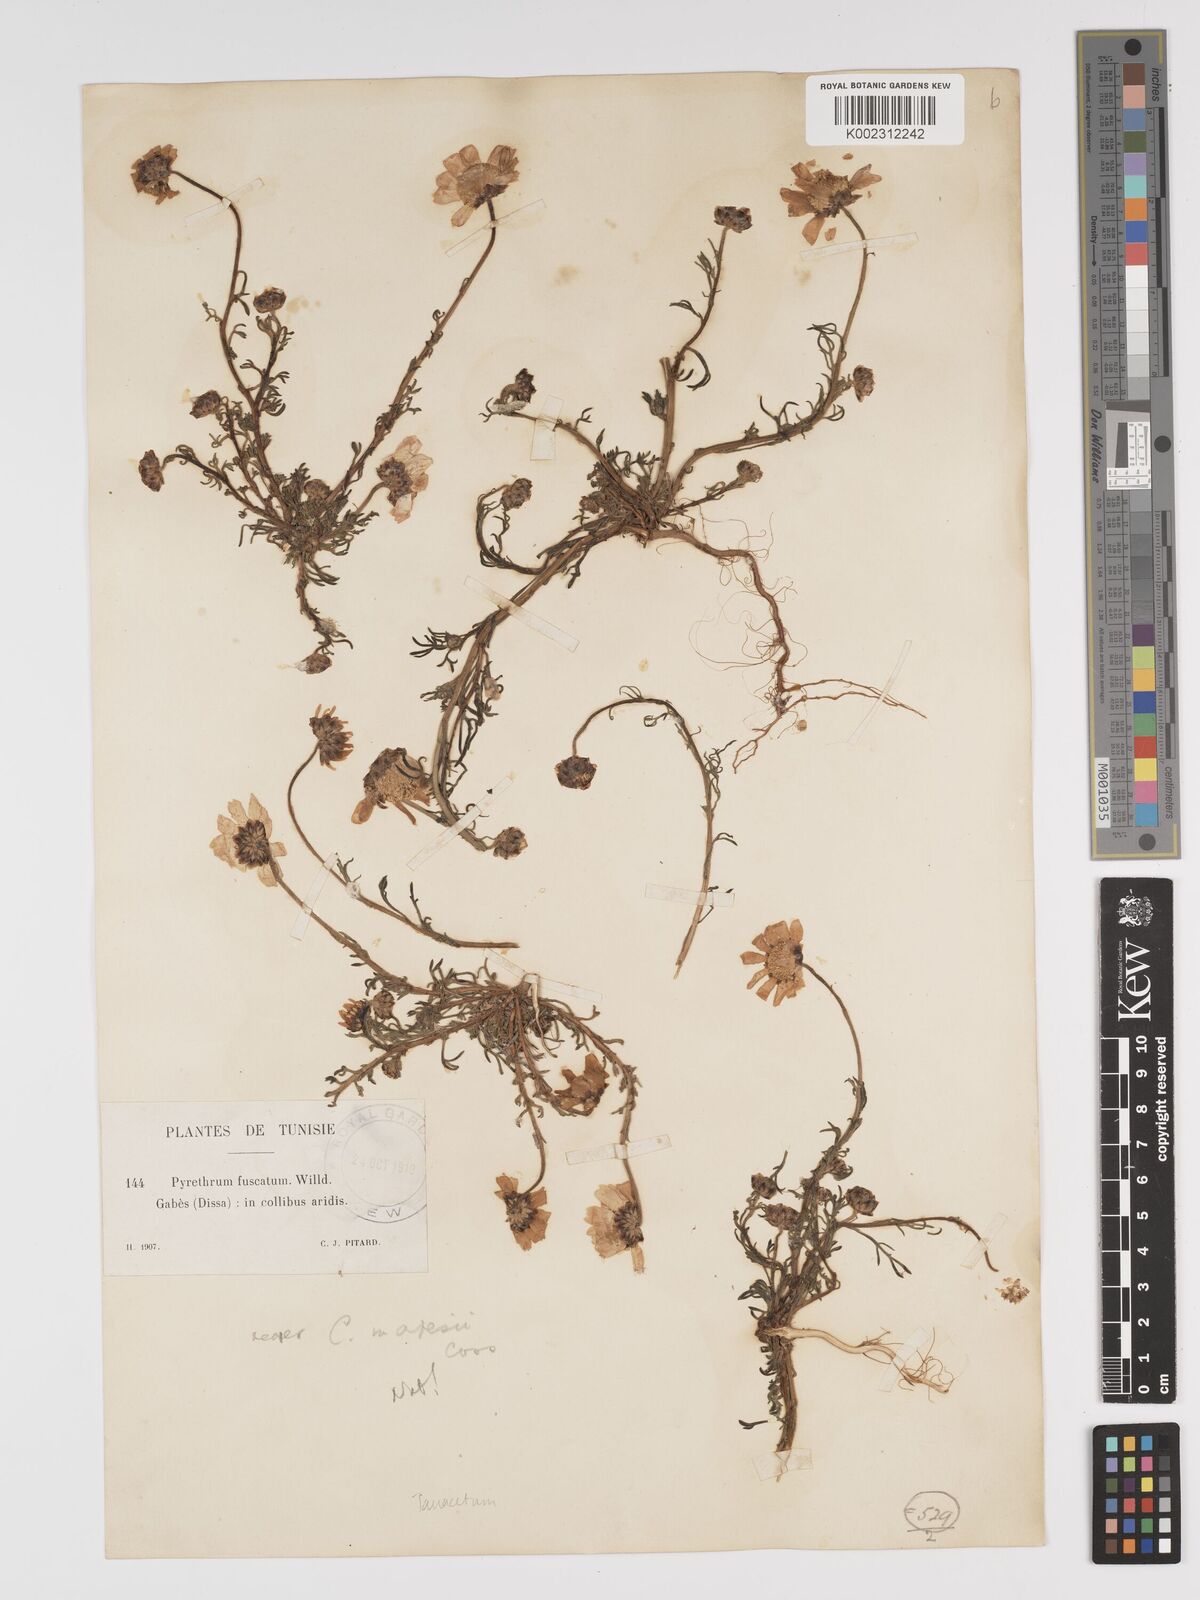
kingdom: Plantae
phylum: Tracheophyta
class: Magnoliopsida
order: Asterales
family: Asteraceae
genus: Tanacetum
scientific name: Tanacetum
